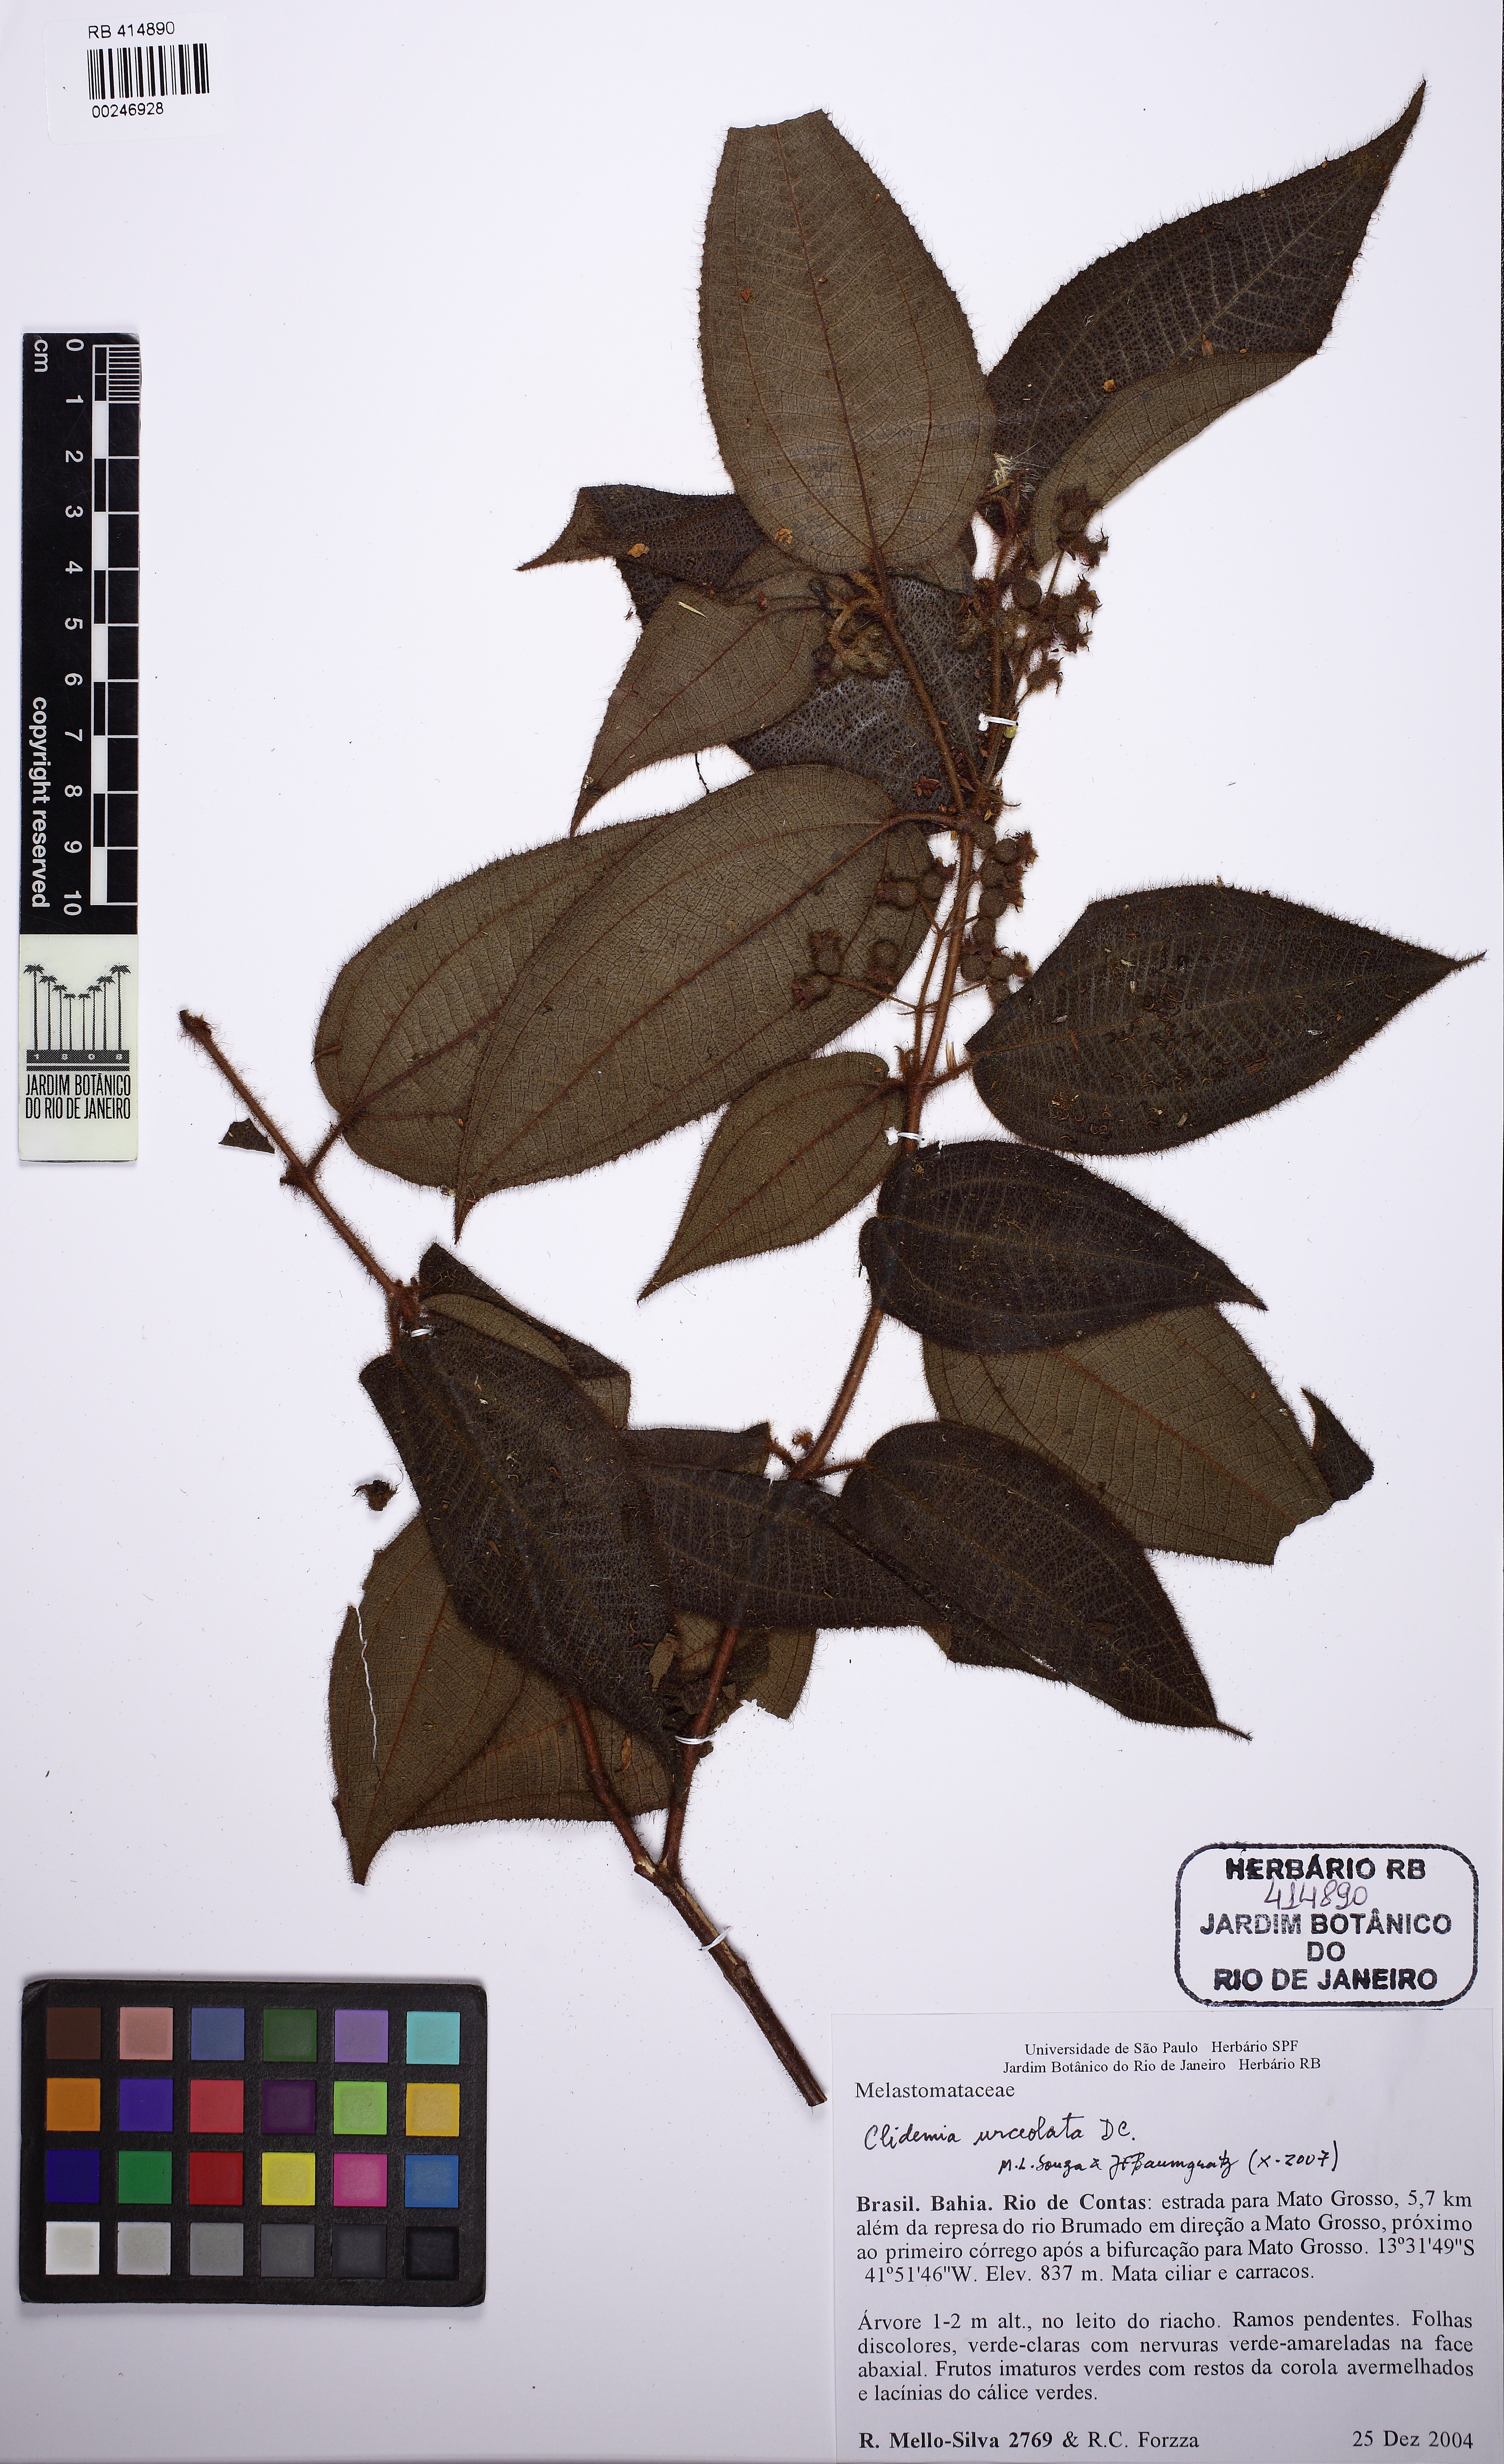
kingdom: Plantae
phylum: Tracheophyta
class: Magnoliopsida
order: Myrtales
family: Melastomataceae
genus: Miconia
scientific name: Miconia neourceolata
